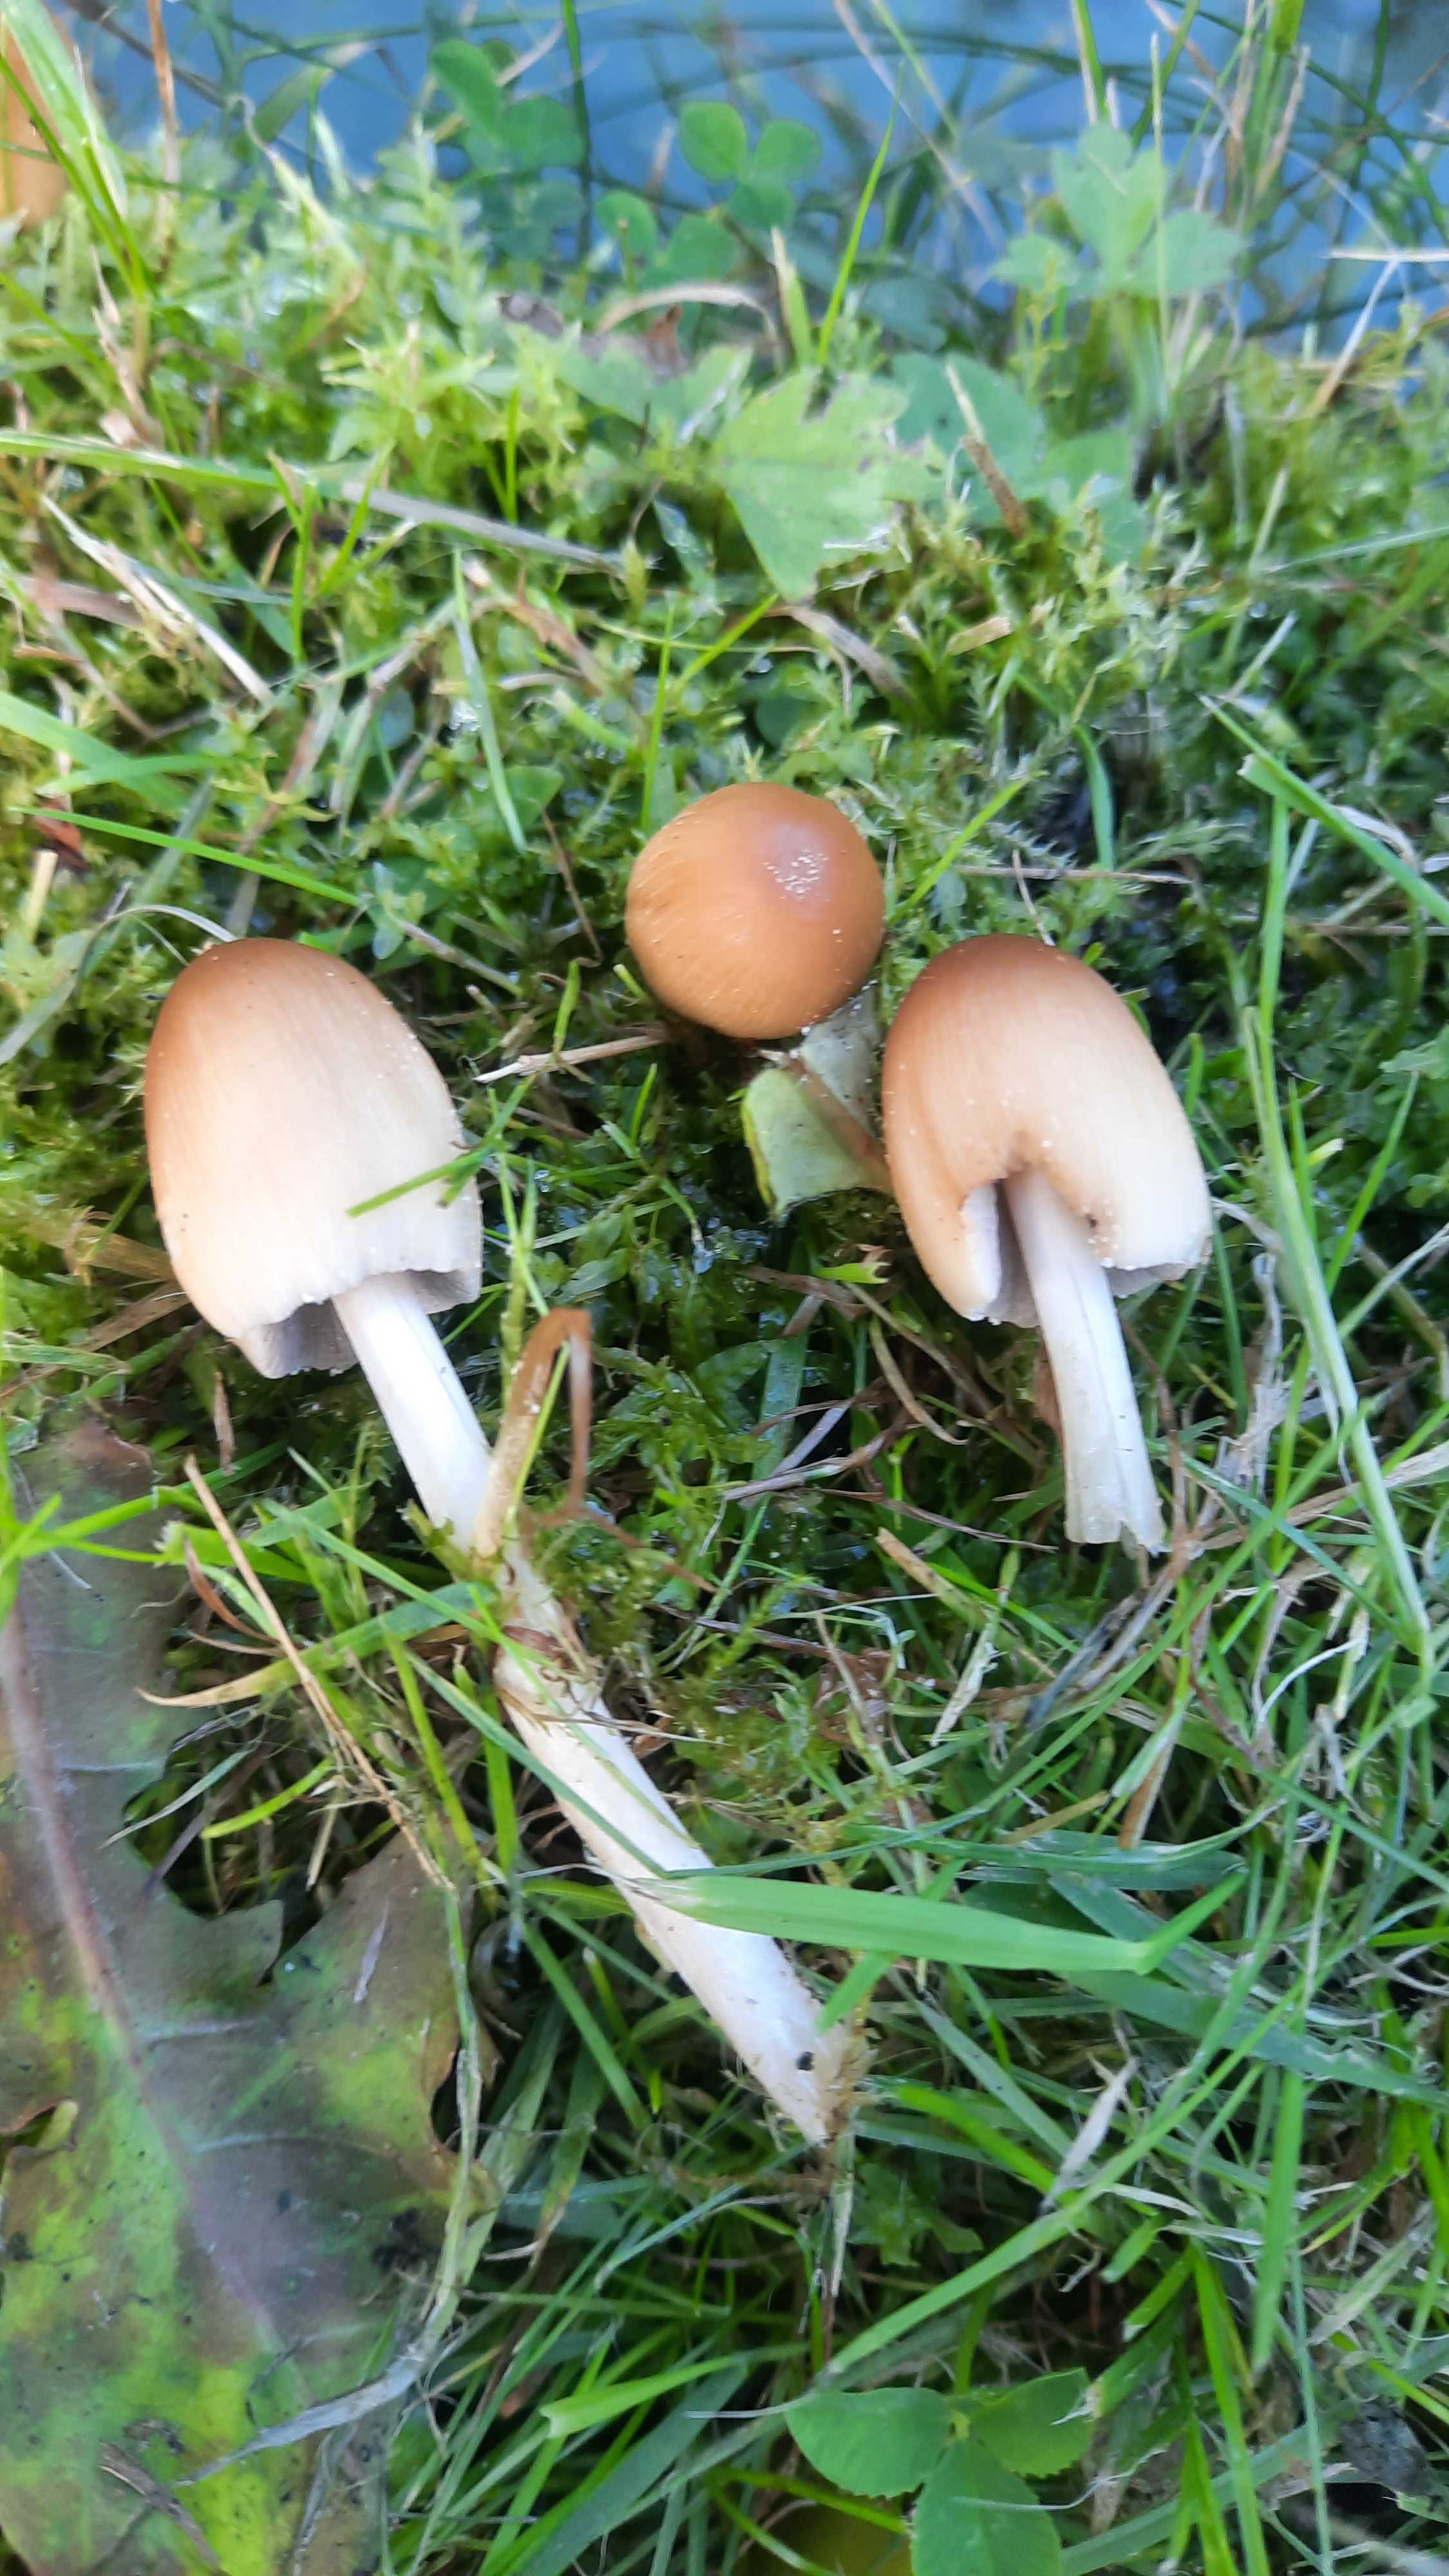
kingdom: Fungi
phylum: Basidiomycota
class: Agaricomycetes
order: Agaricales
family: Psathyrellaceae
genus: Coprinellus
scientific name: Coprinellus micaceus
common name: glimmer-blækhat
